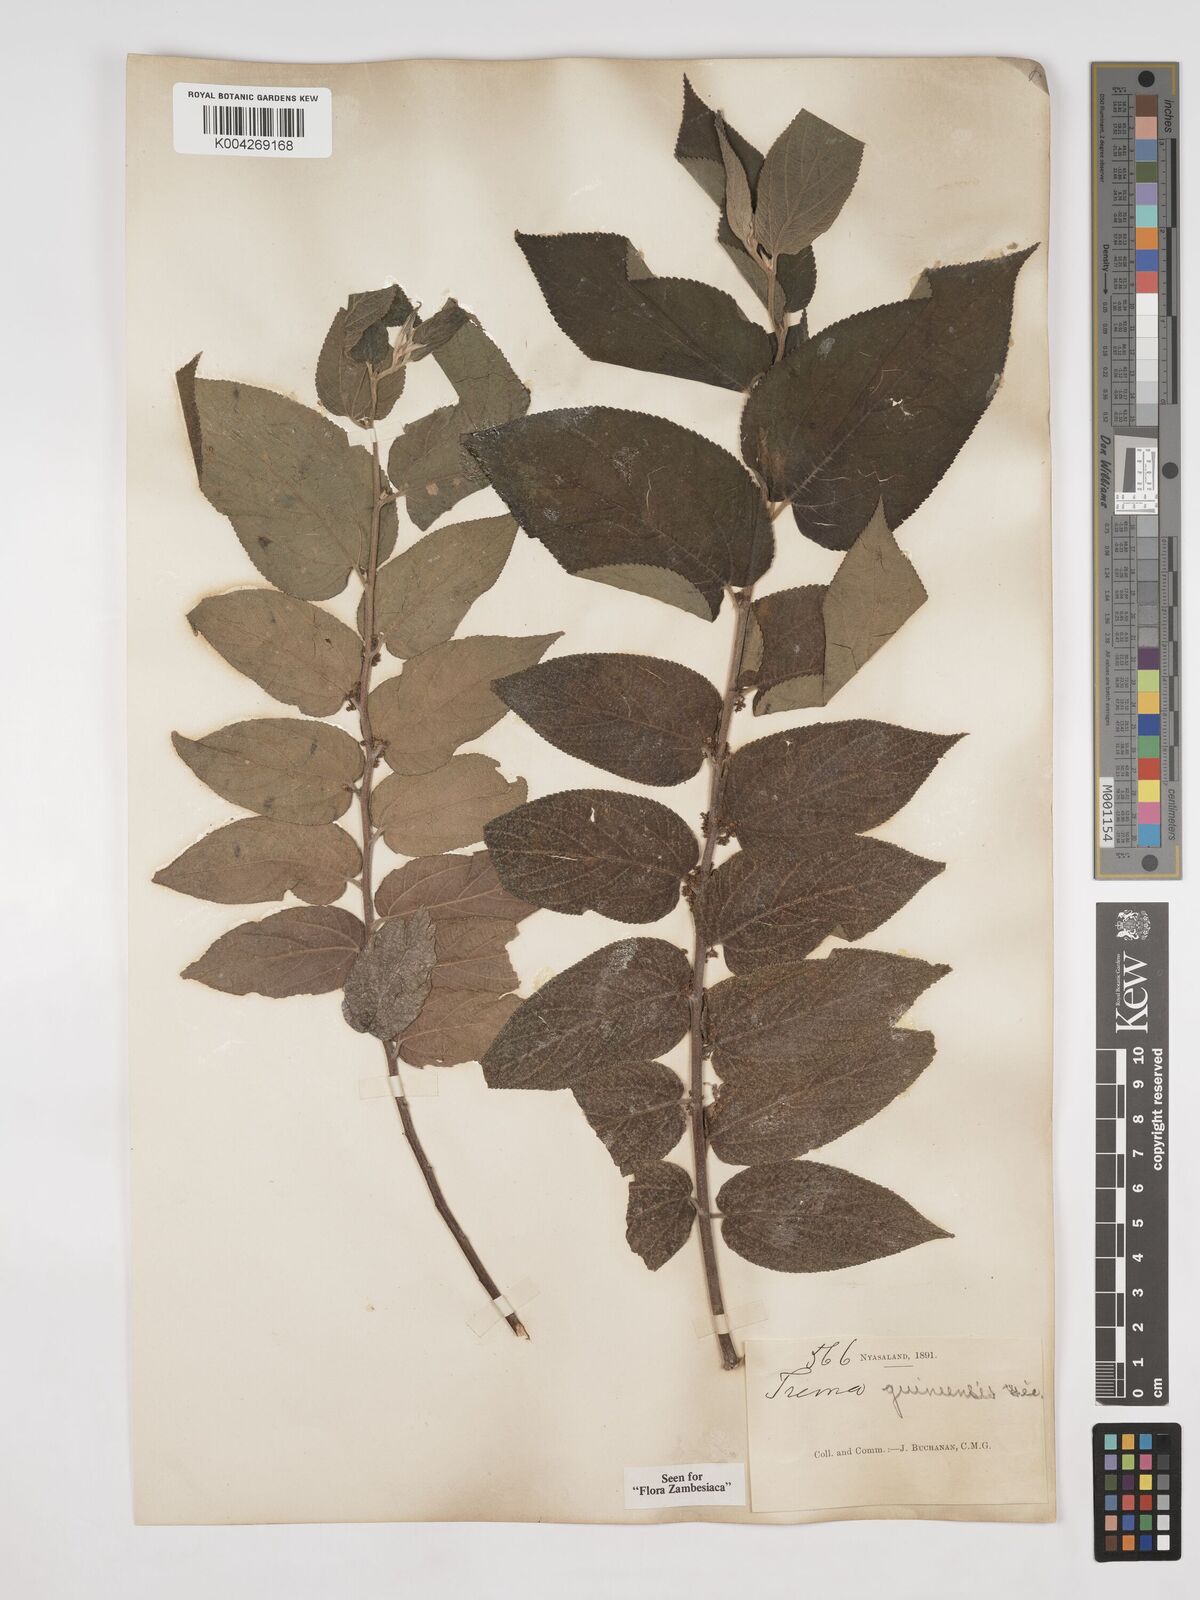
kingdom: Plantae
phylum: Tracheophyta
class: Magnoliopsida
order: Rosales
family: Cannabaceae
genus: Trema
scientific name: Trema orientale
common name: Indian charcoal tree
